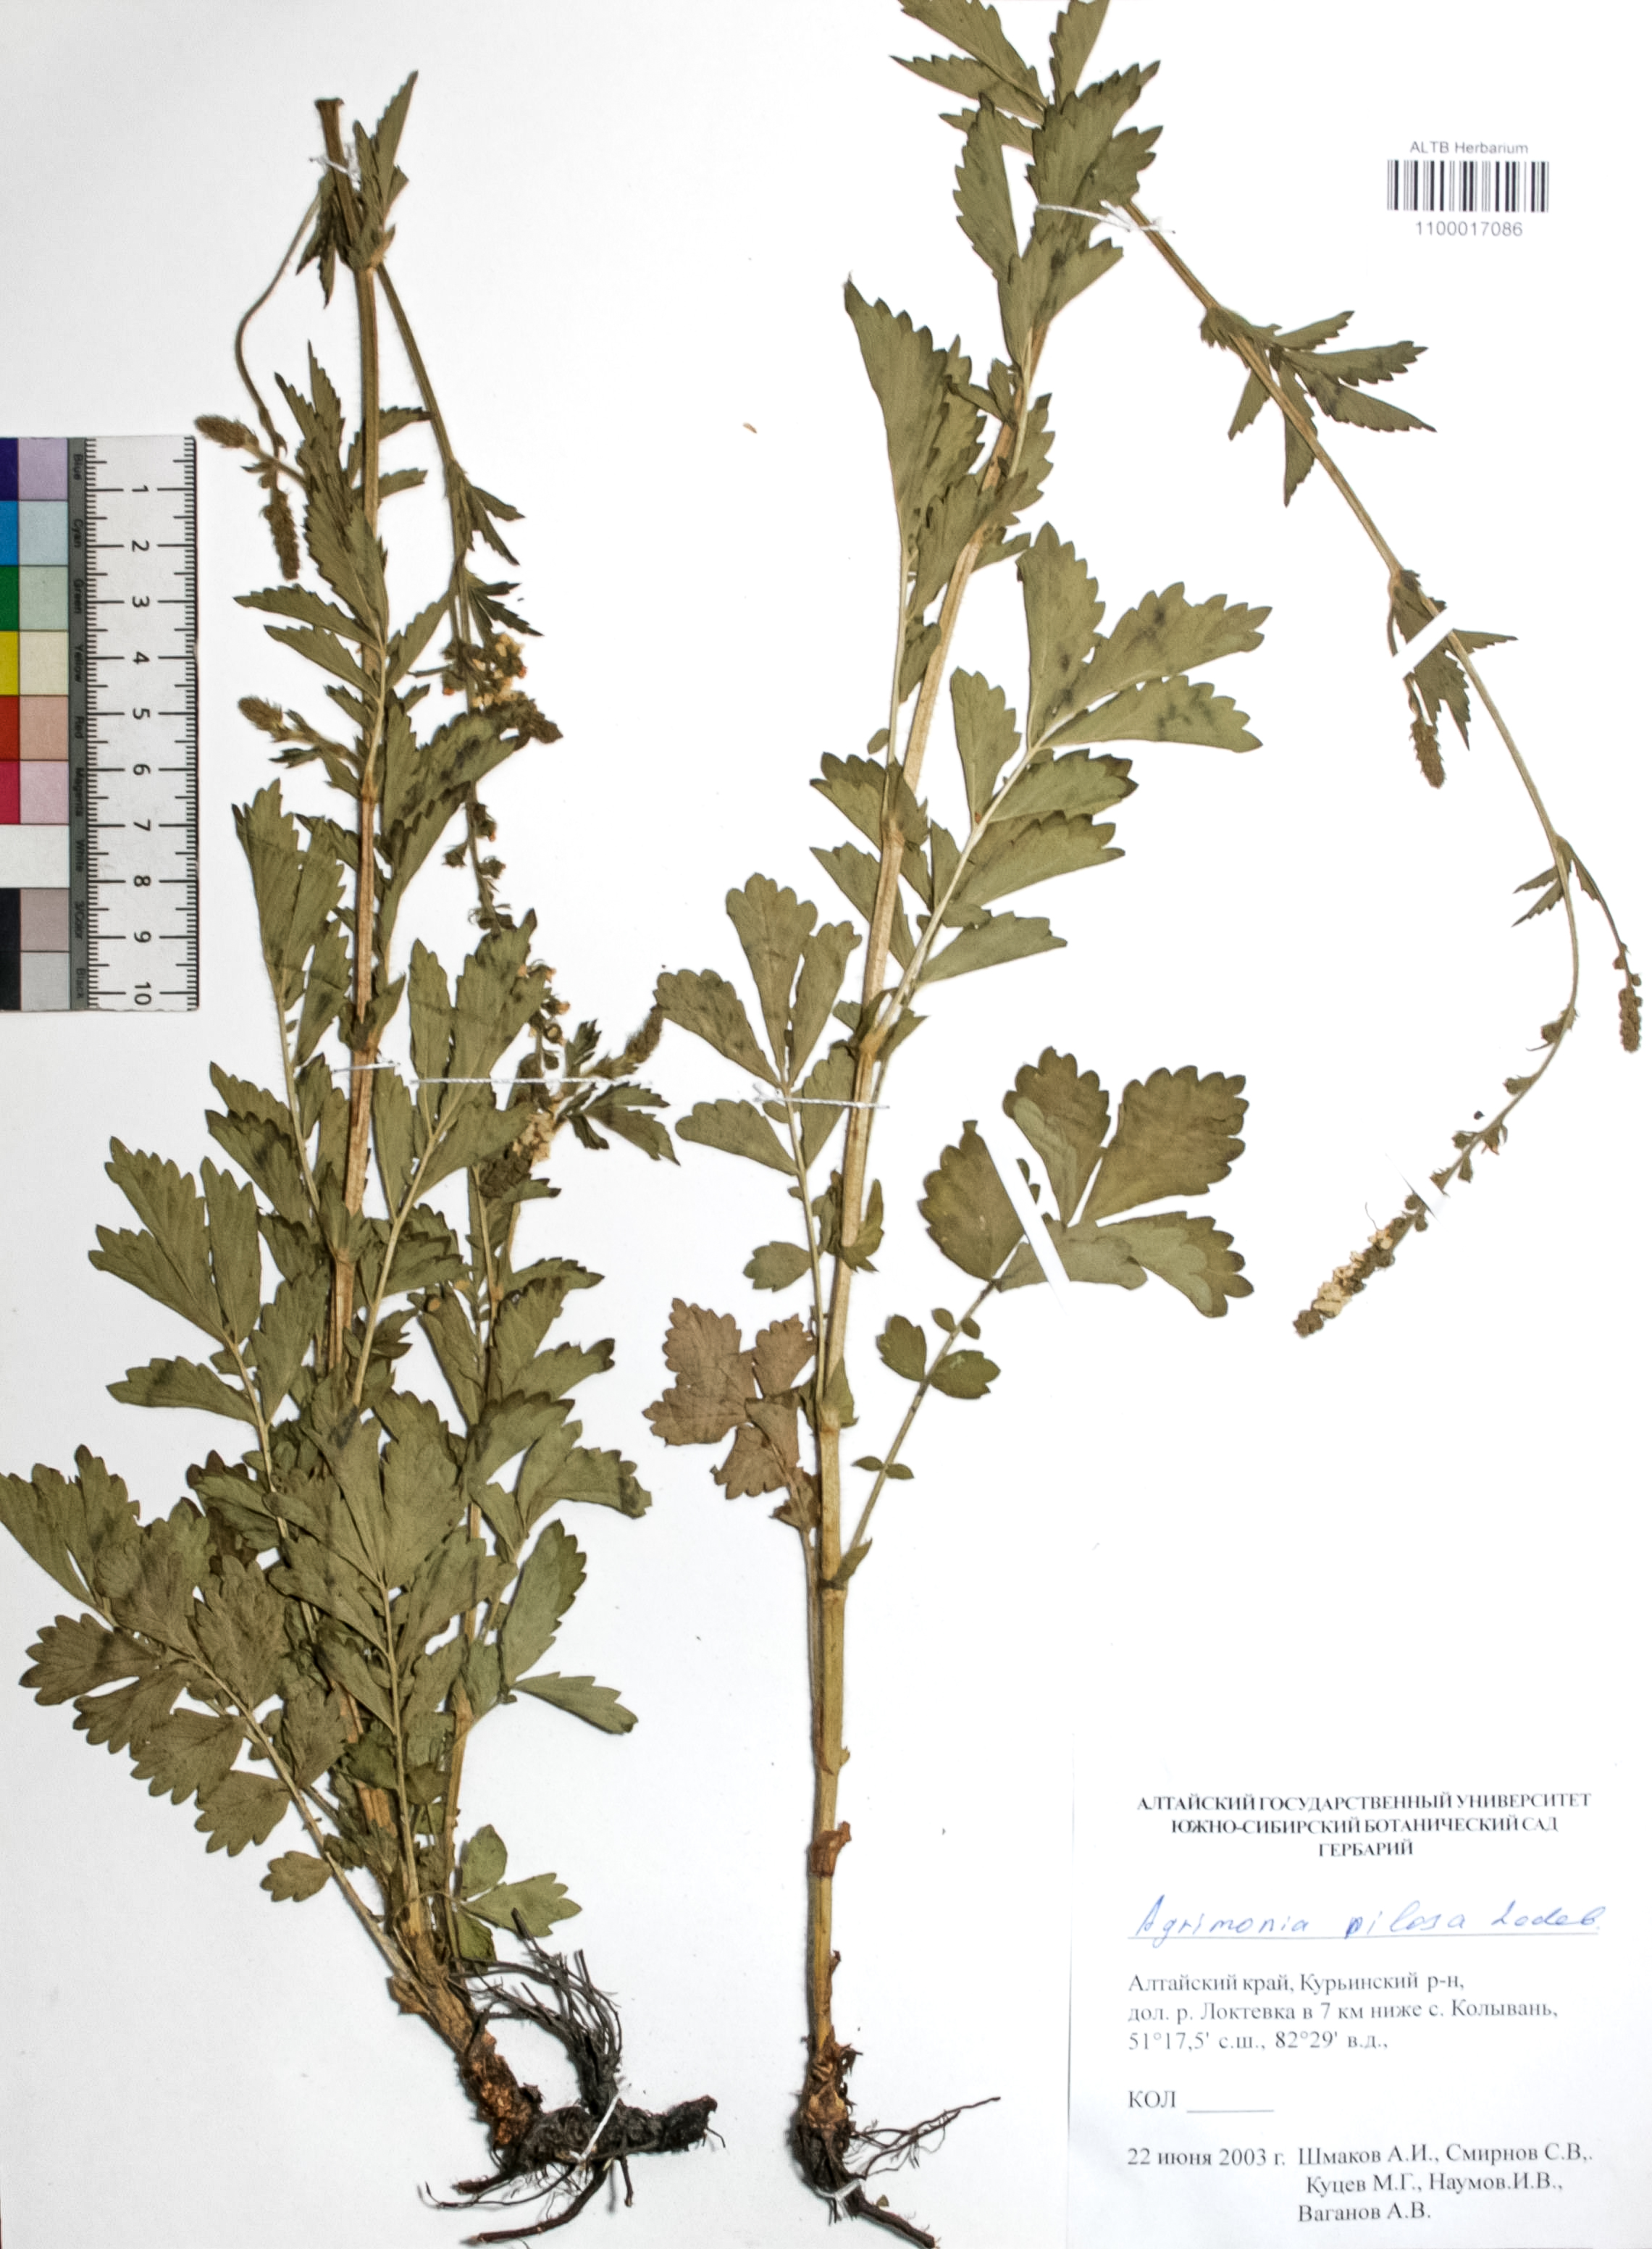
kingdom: Plantae
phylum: Tracheophyta
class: Magnoliopsida
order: Rosales
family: Rosaceae
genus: Agrimonia
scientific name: Agrimonia pilosa
